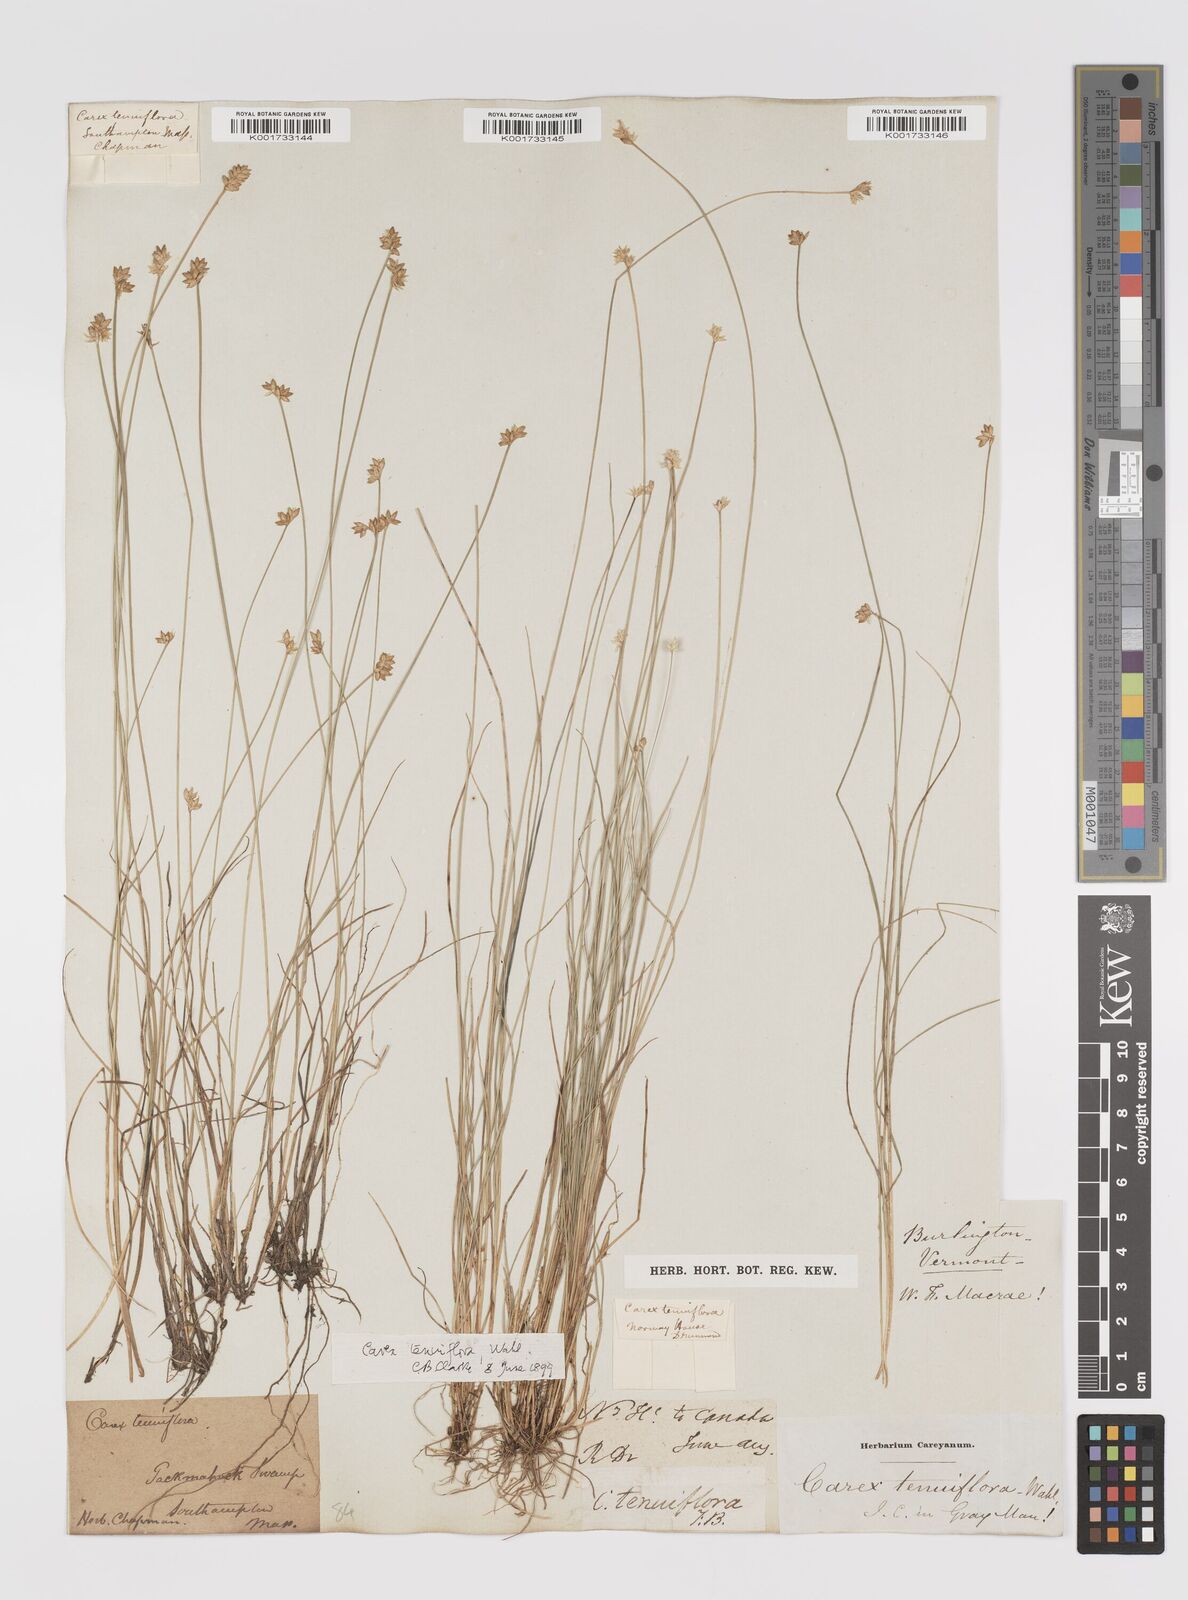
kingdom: Plantae
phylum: Tracheophyta
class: Liliopsida
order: Poales
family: Cyperaceae
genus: Carex
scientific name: Carex tenuiflora
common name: Sparse-flowered sedge
